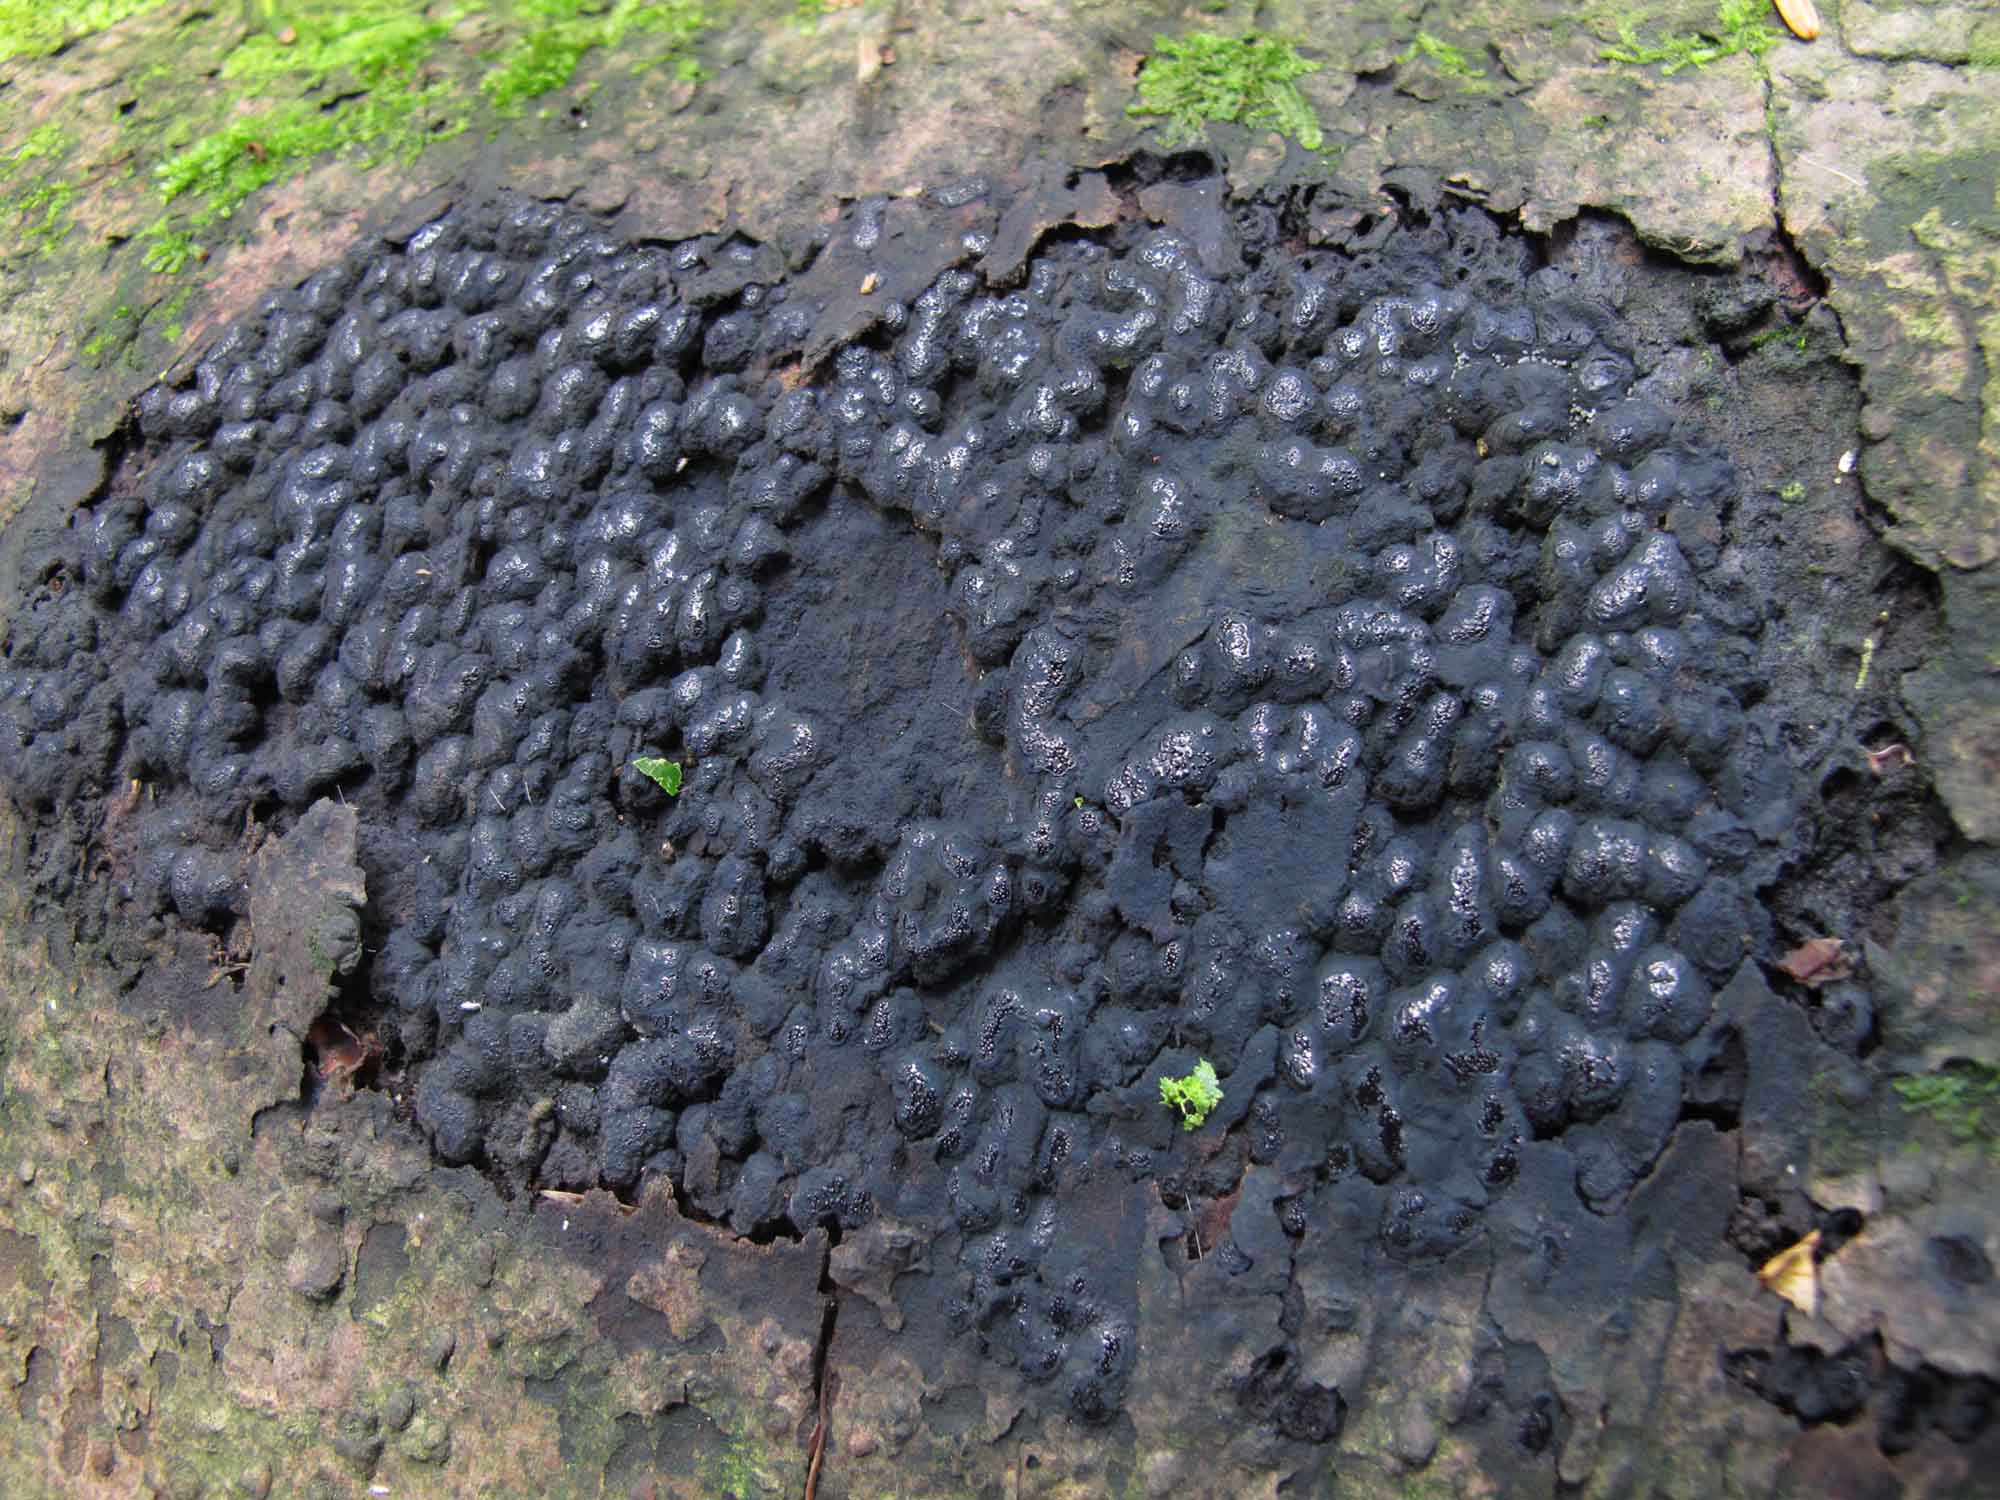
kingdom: Fungi
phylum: Ascomycota
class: Sordariomycetes
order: Boliniales
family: Boliniaceae
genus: Camaropella
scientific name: Camaropella lutea
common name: gulsplint-kulsnegl
